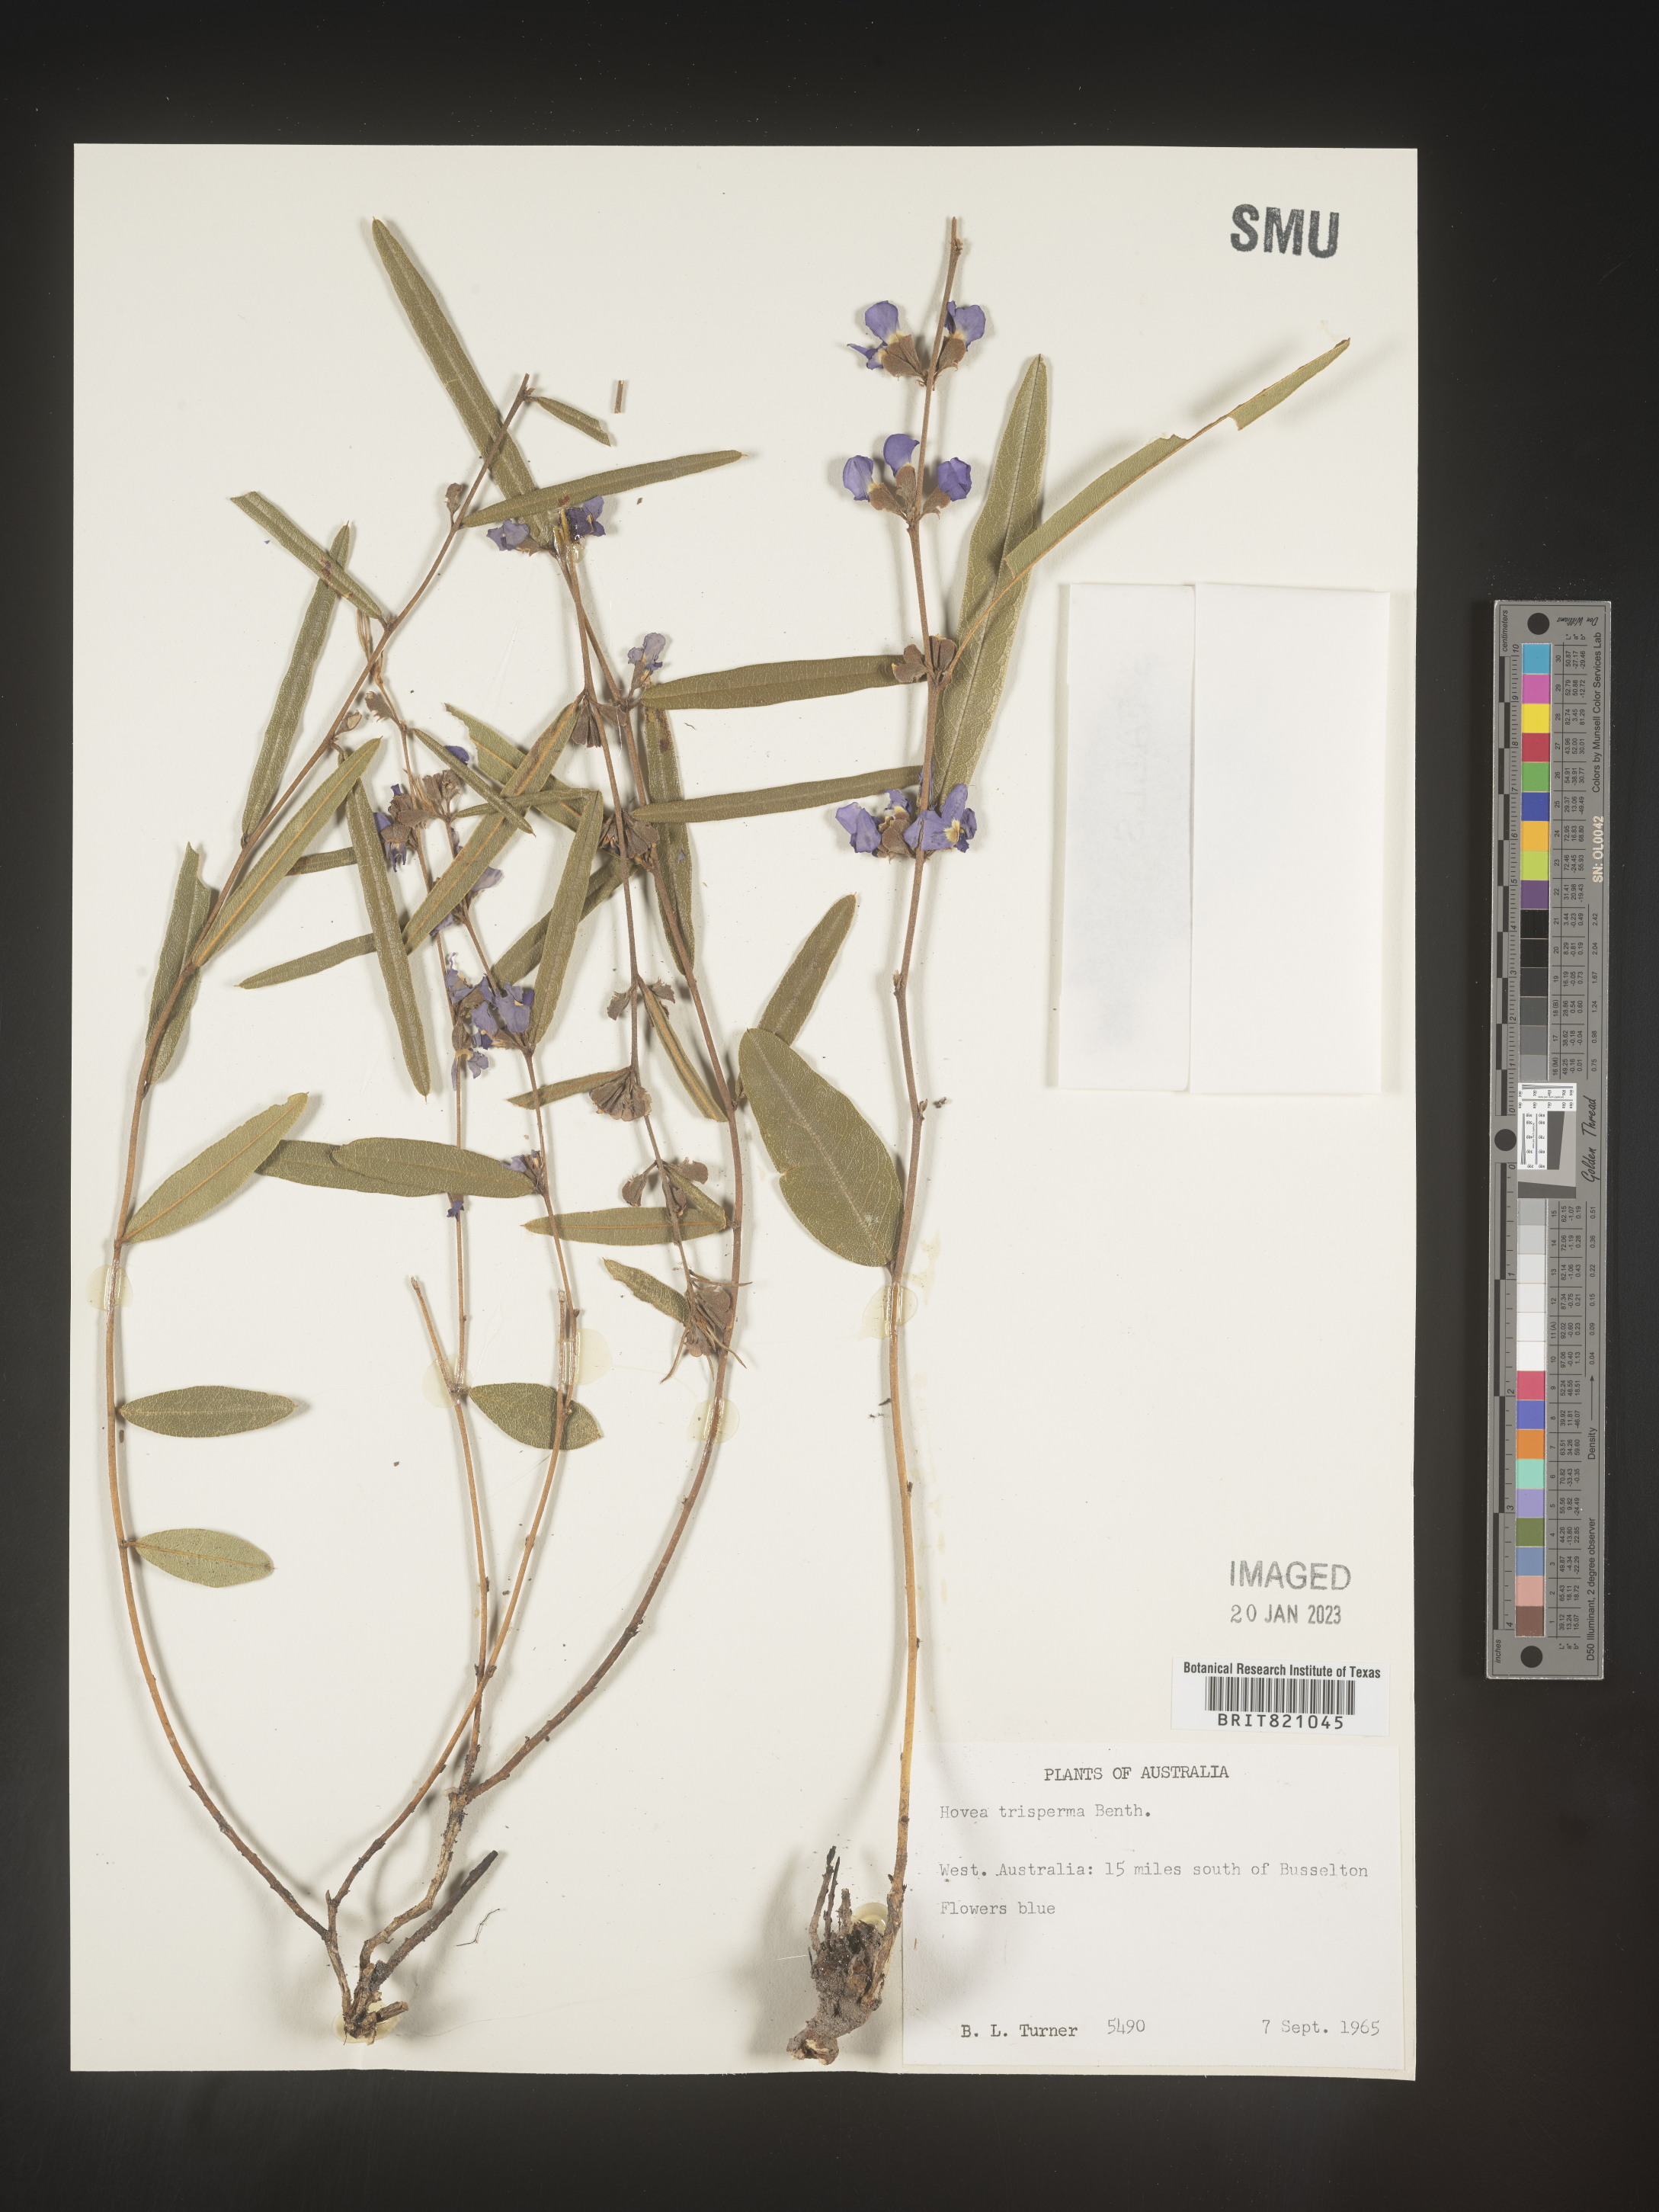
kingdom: Plantae
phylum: Tracheophyta
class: Magnoliopsida
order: Fabales
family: Fabaceae
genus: Hovea
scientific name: Hovea
